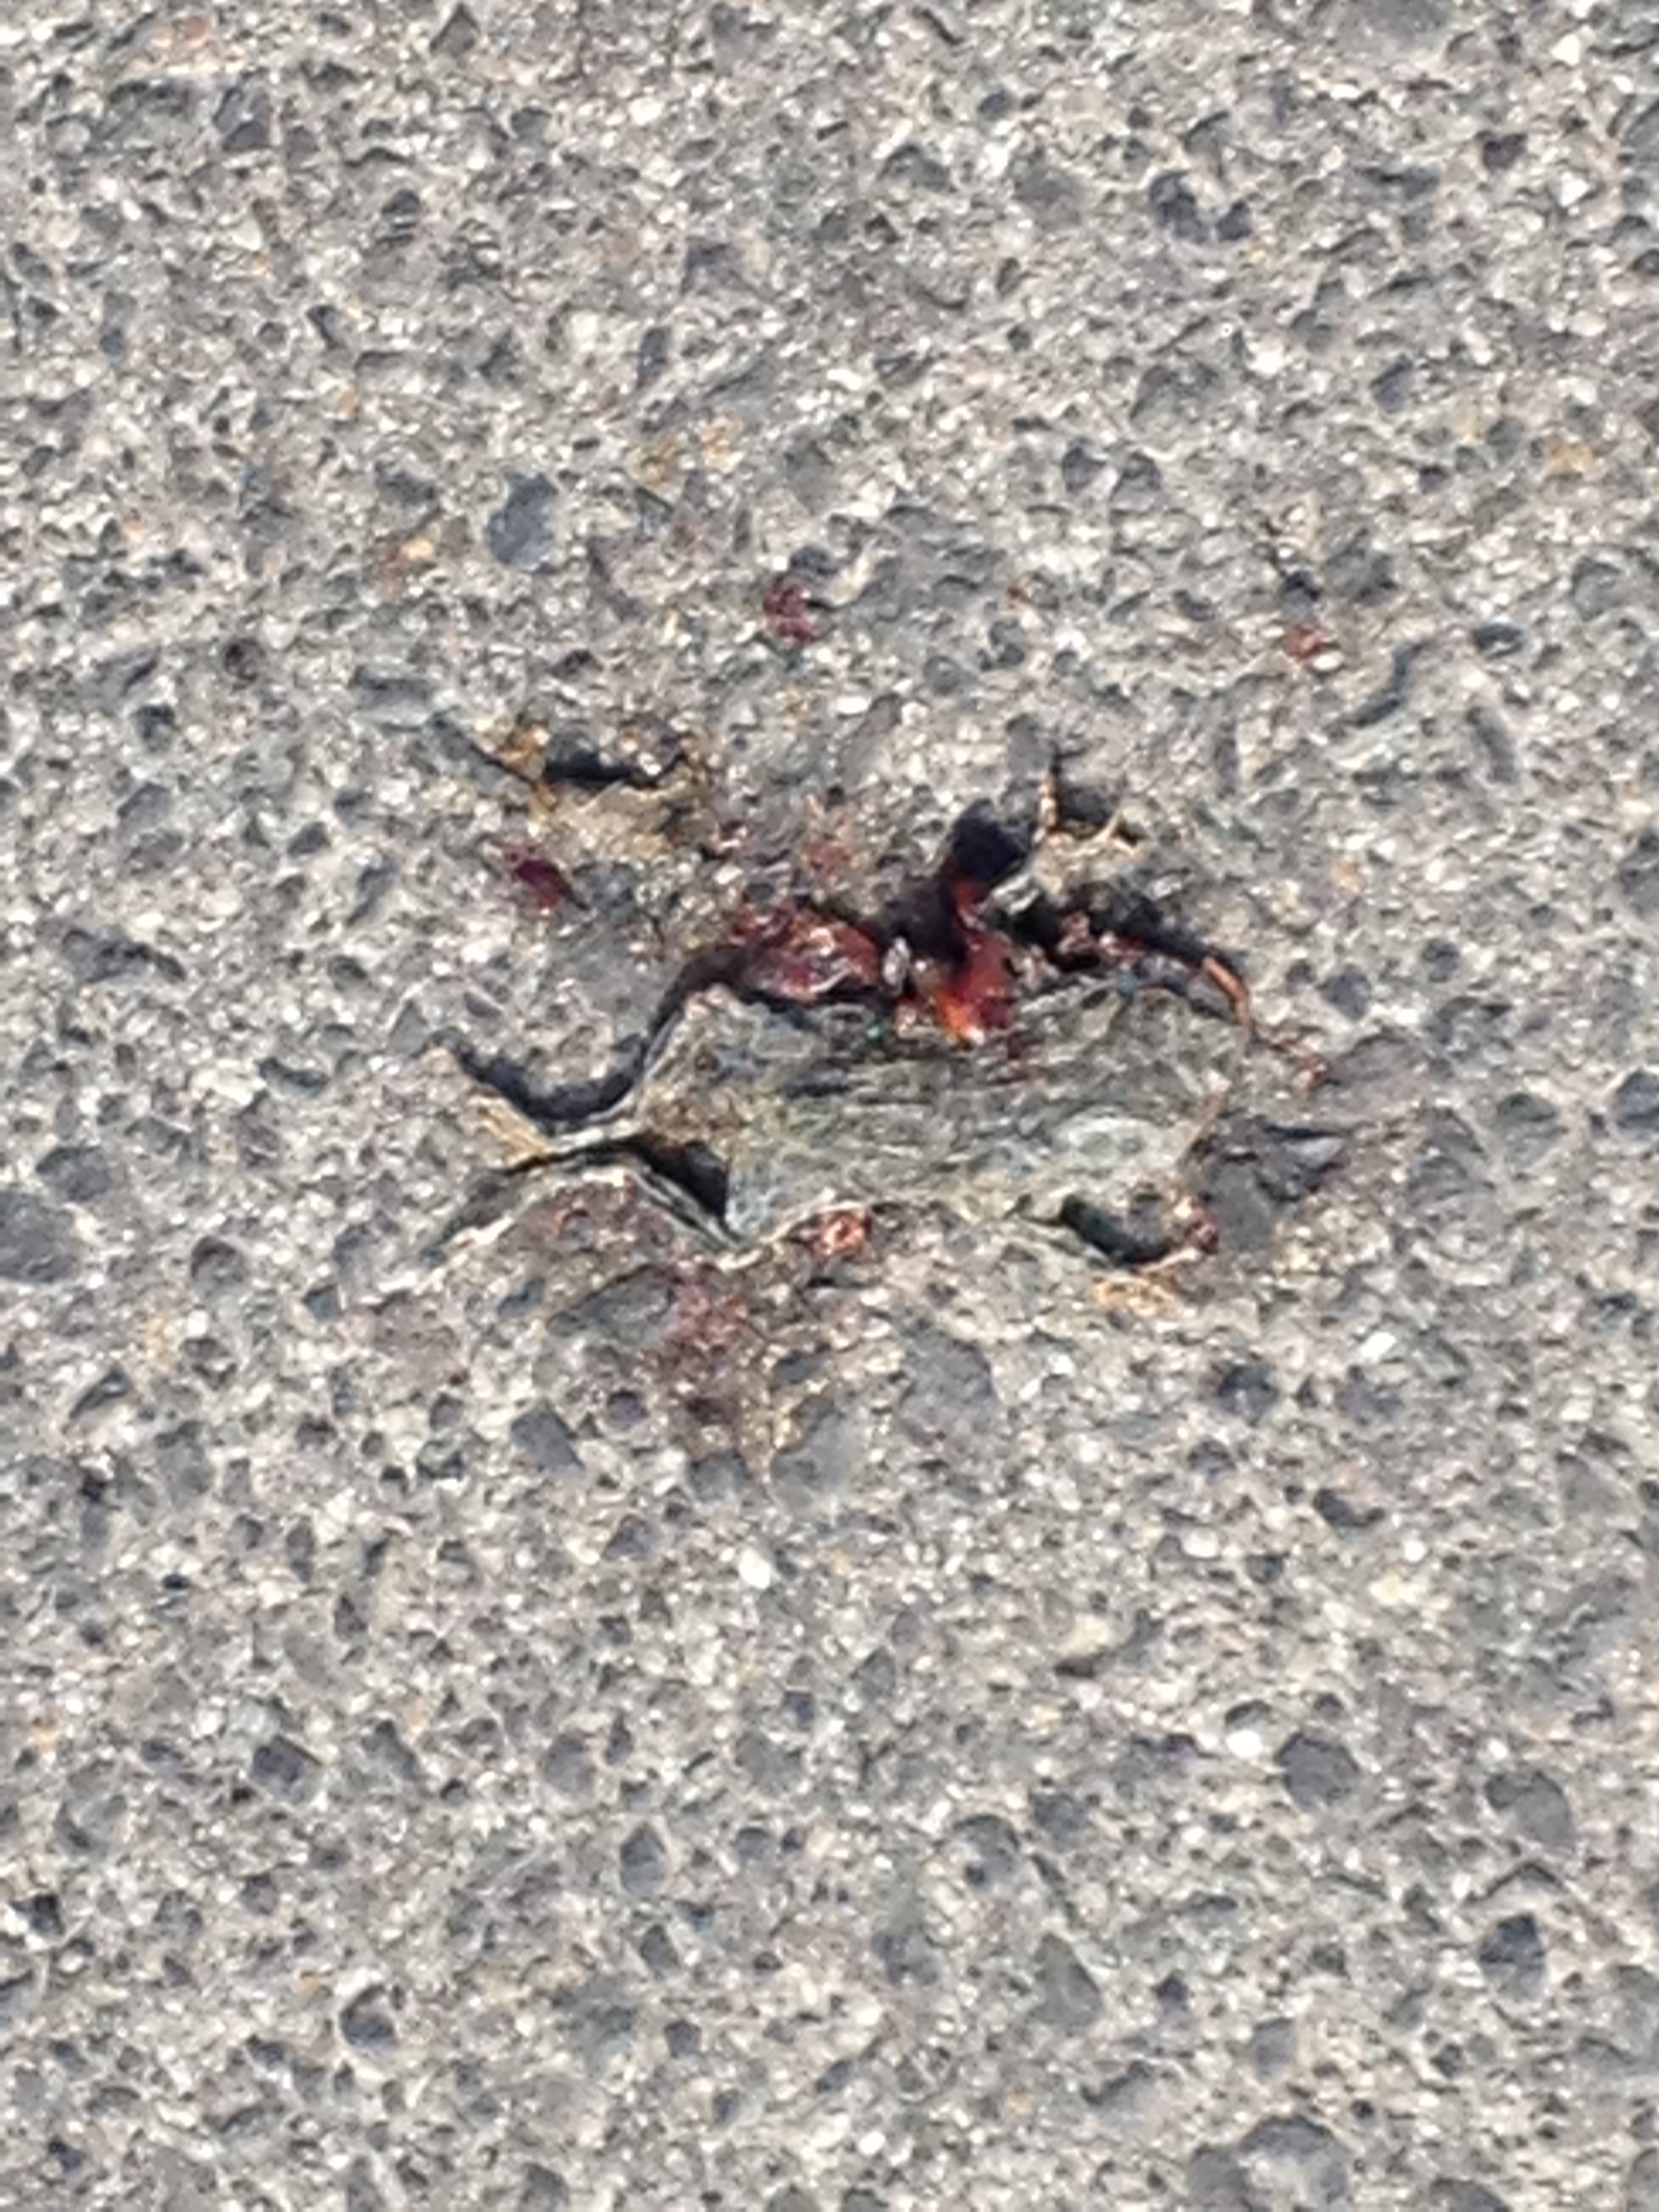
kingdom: Animalia
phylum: Chordata
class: Amphibia
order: Anura
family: Bufonidae
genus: Bufotes
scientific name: Bufotes viridis
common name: European green toad
